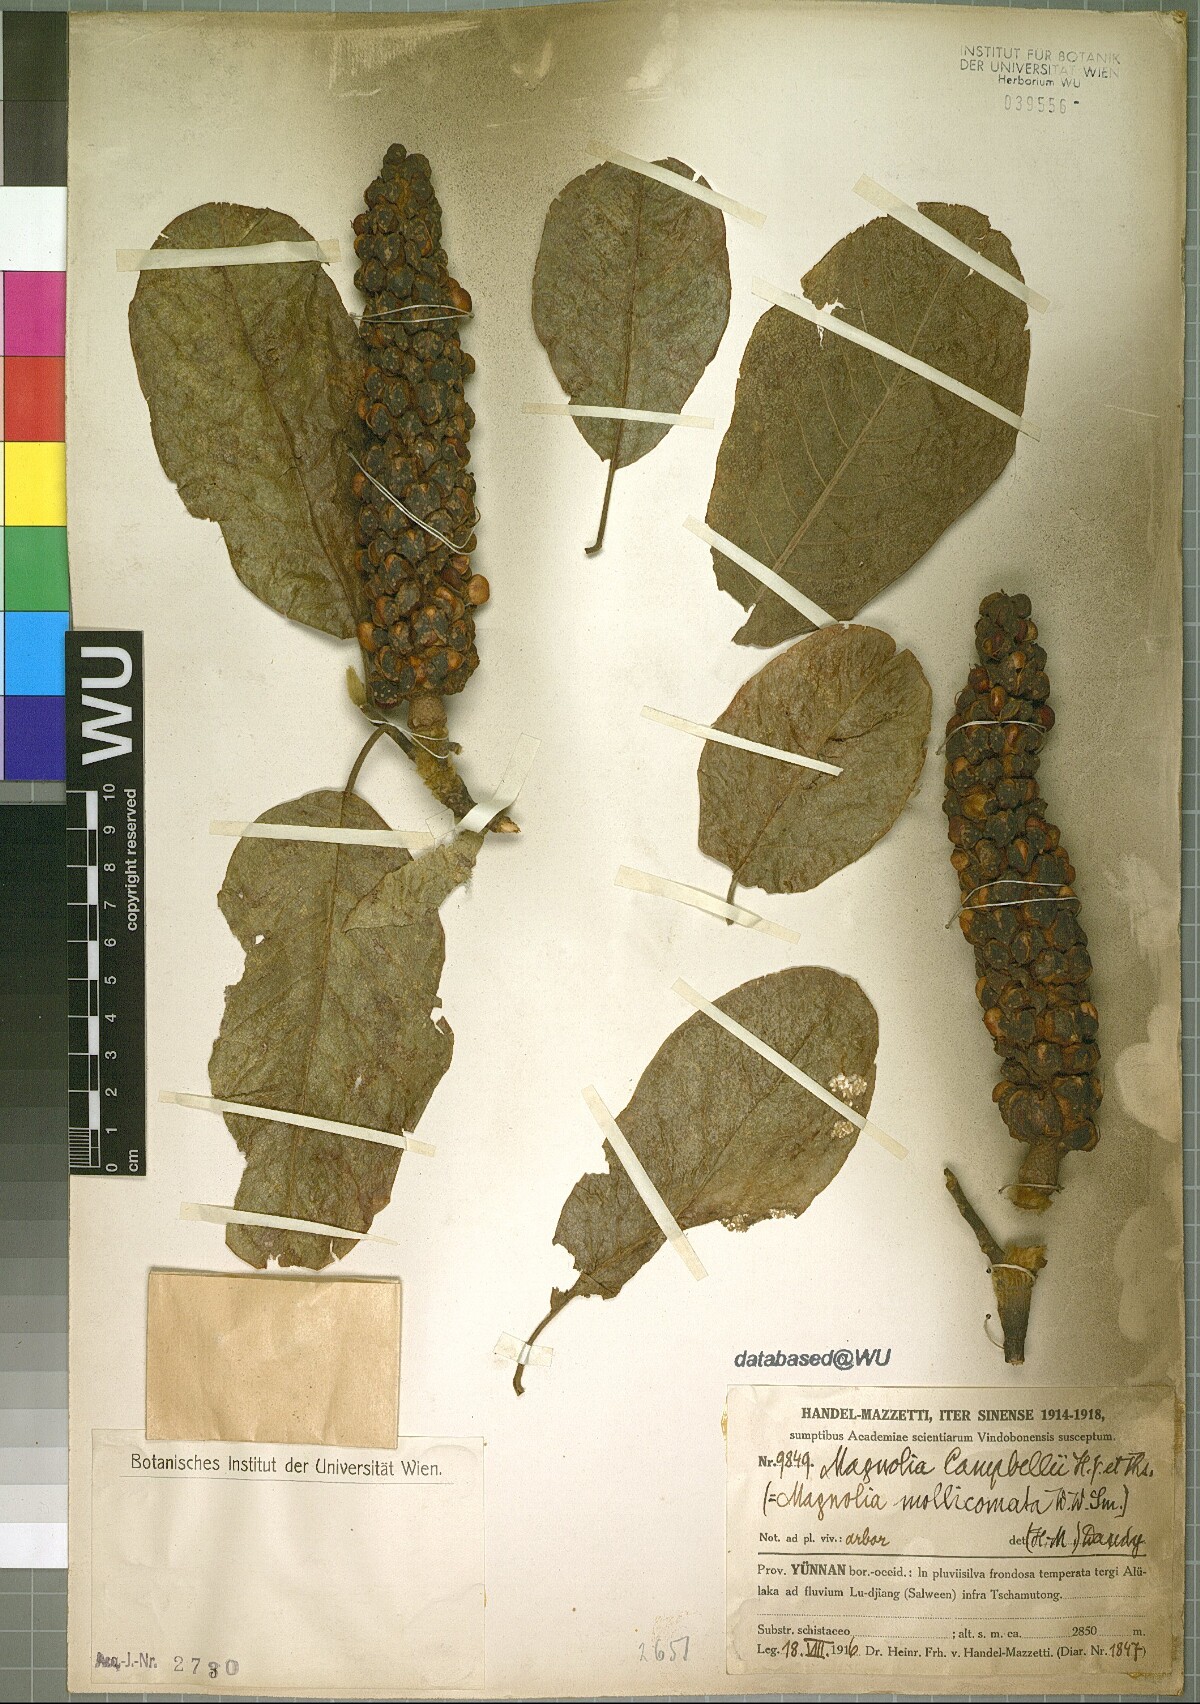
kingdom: Plantae
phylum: Tracheophyta
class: Magnoliopsida
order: Magnoliales
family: Magnoliaceae
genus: Magnolia
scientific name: Magnolia campbellii
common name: Campbell's magnolia
